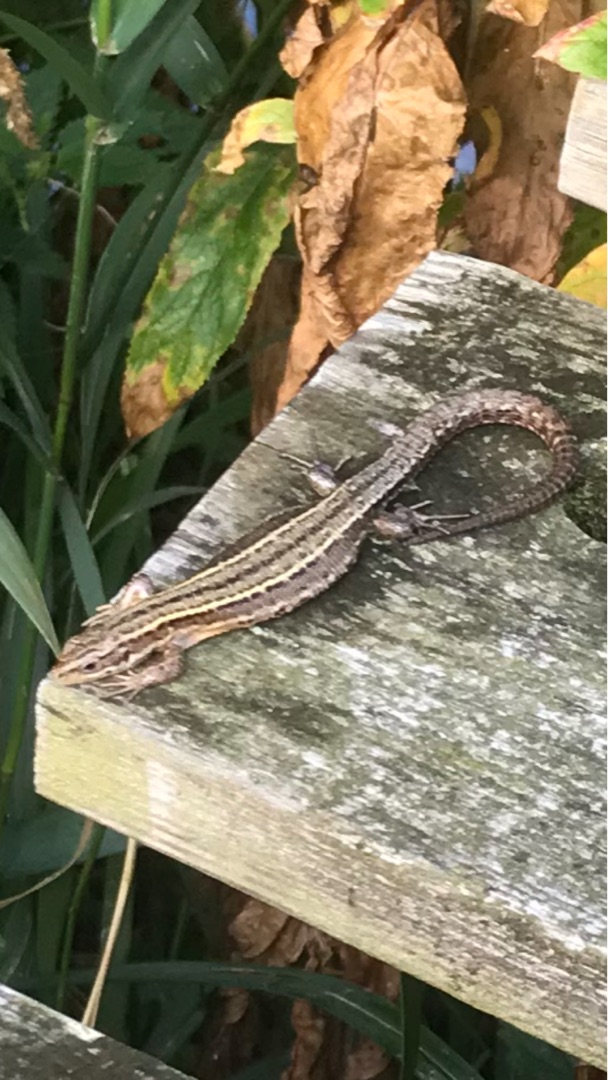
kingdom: Animalia
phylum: Chordata
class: Squamata
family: Lacertidae
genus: Zootoca
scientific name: Zootoca vivipara
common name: Skovfirben
